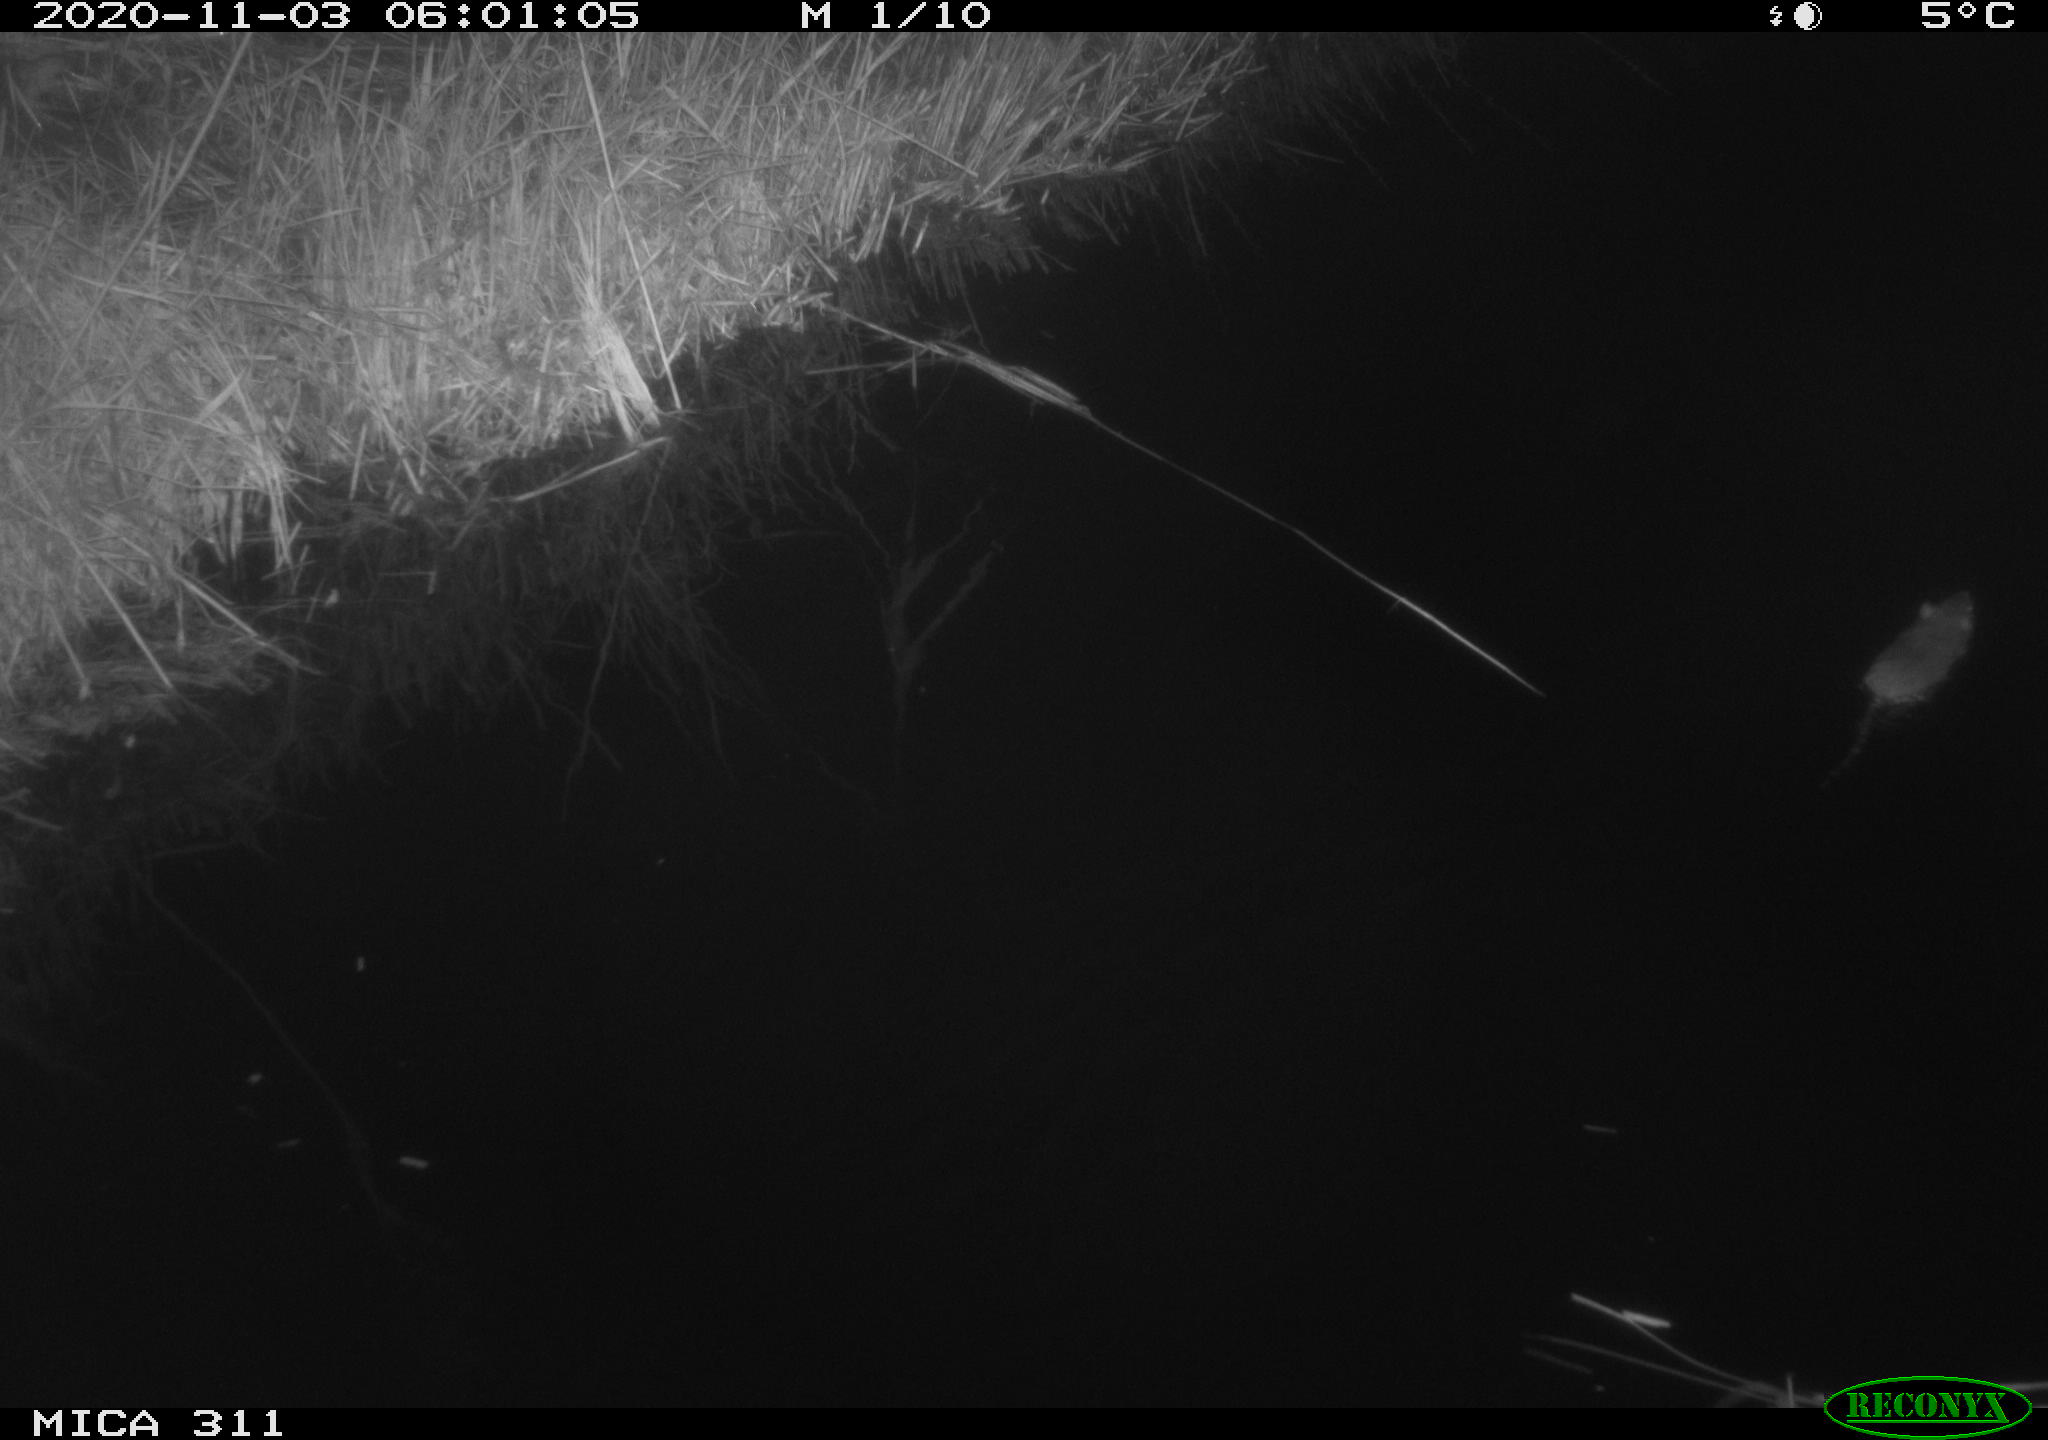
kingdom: Animalia
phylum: Chordata
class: Mammalia
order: Rodentia
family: Muridae
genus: Rattus
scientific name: Rattus norvegicus
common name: Brown rat
